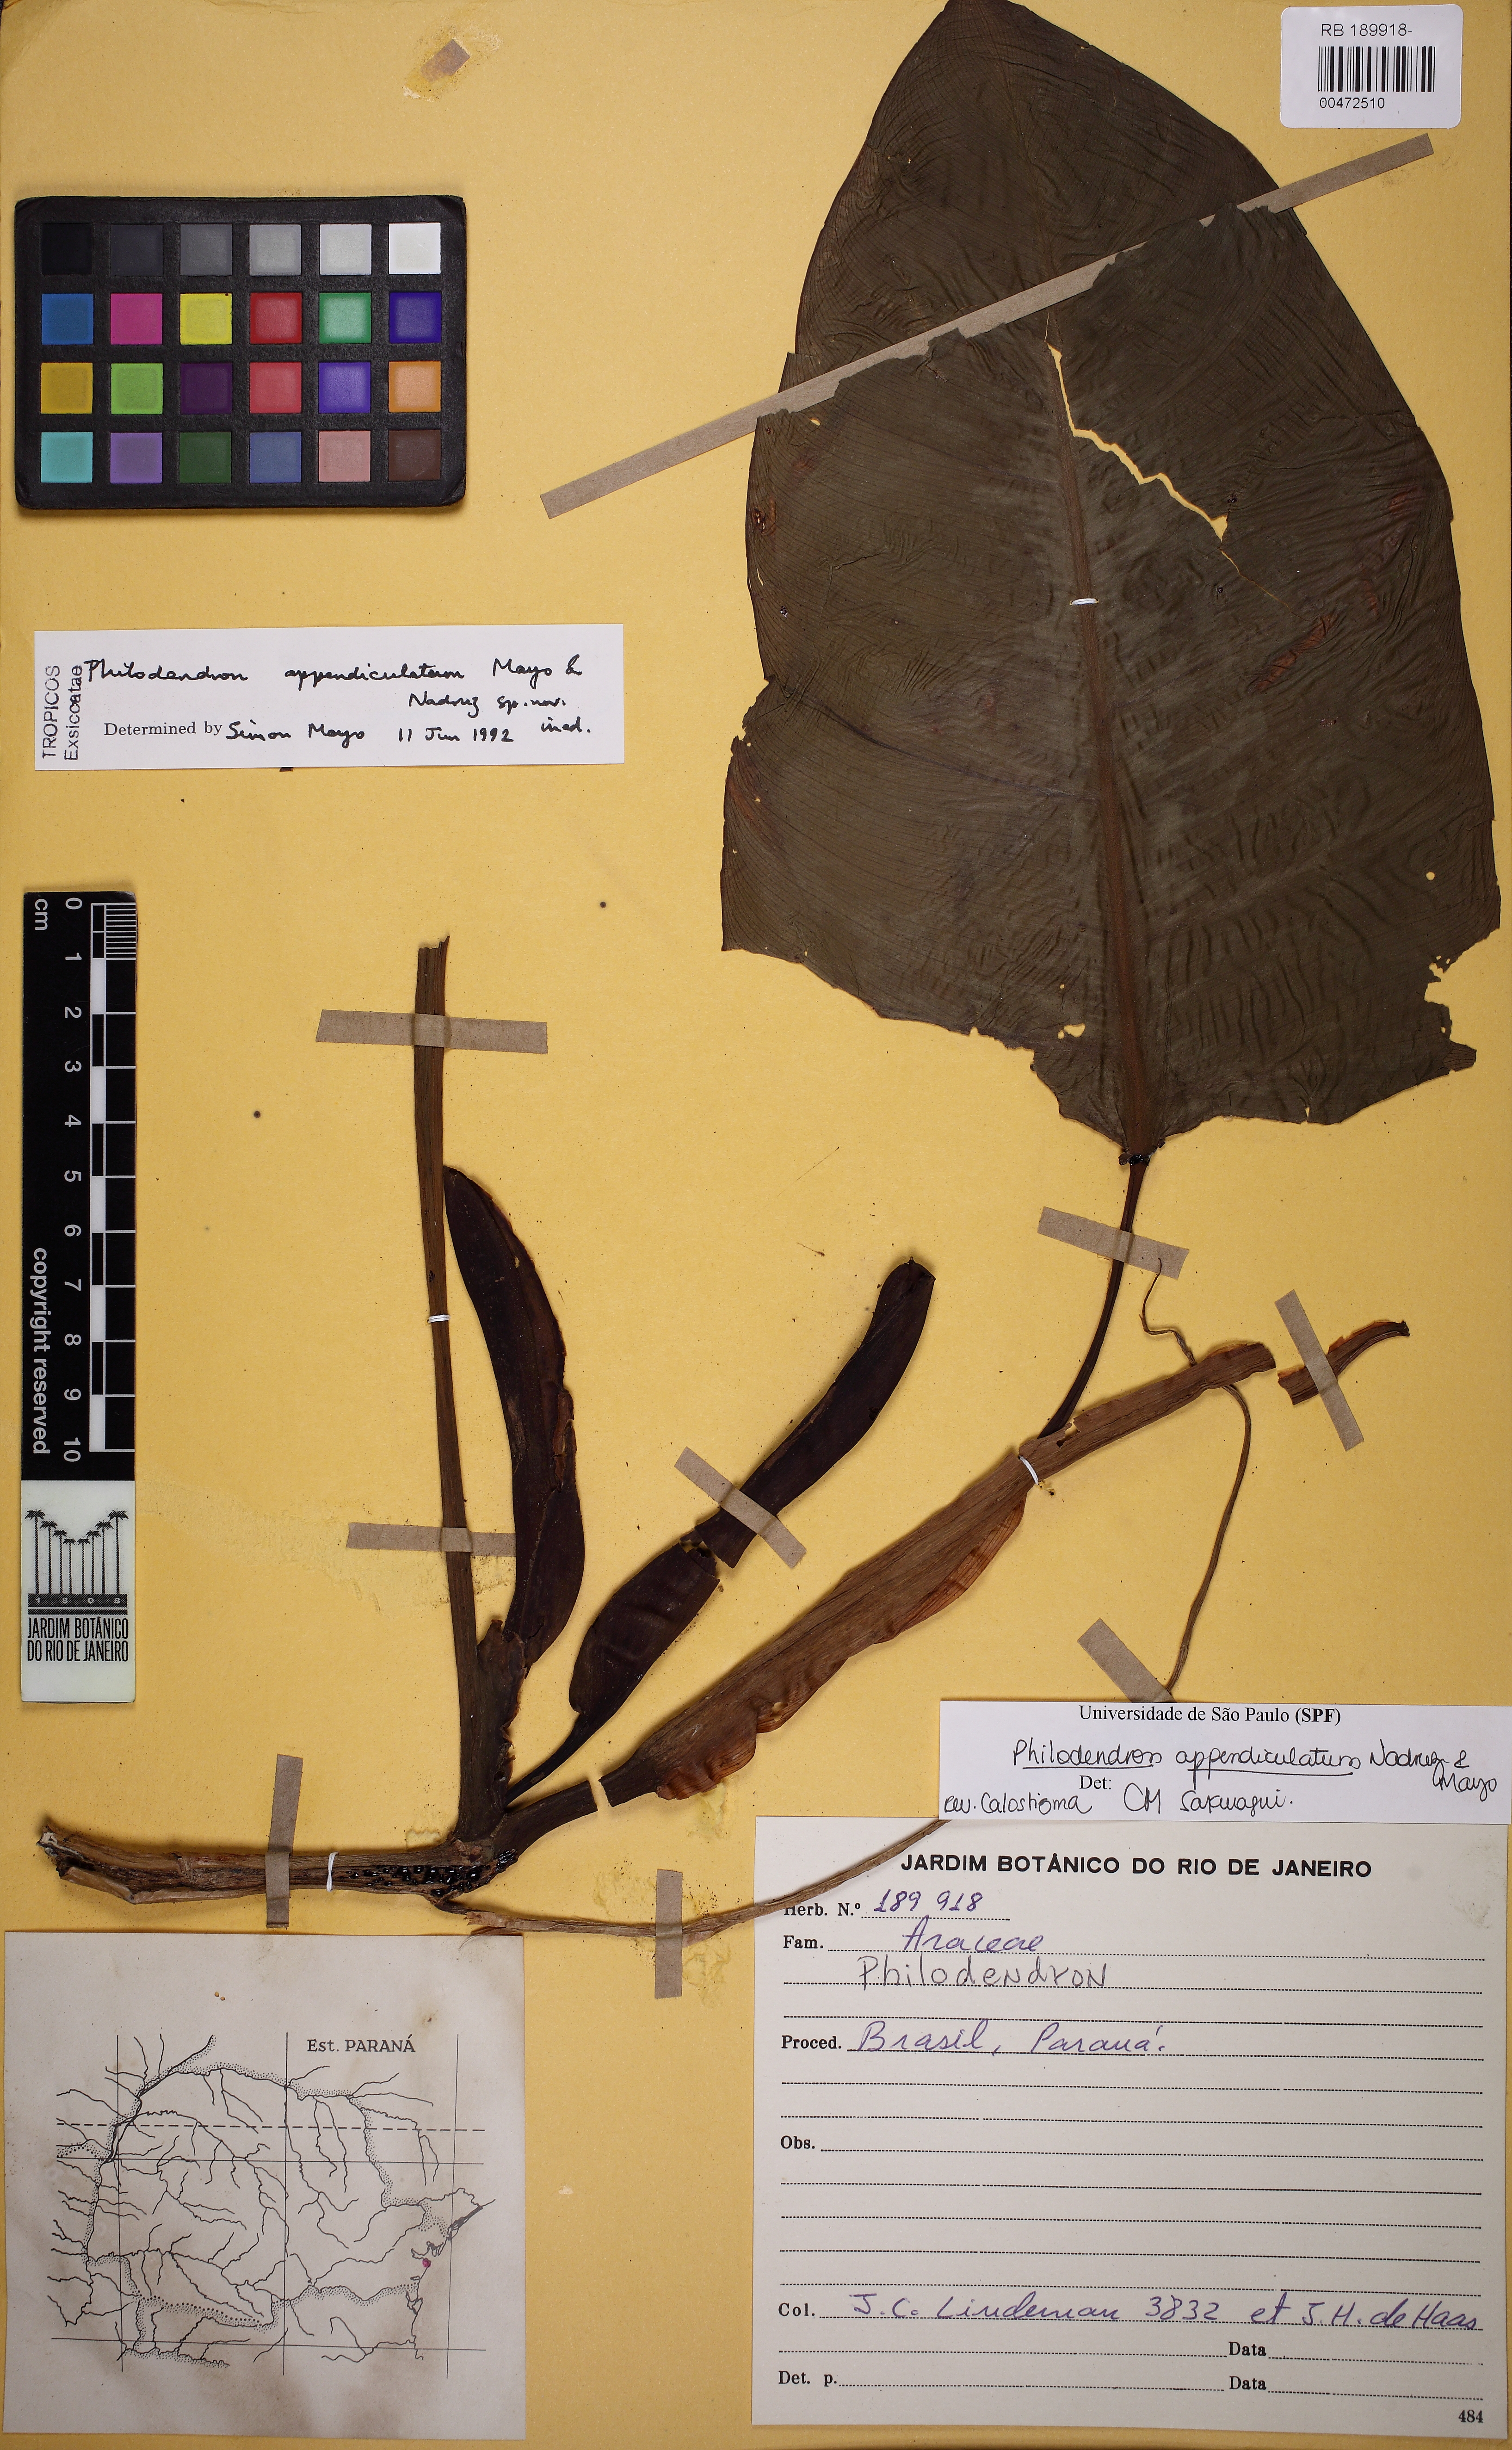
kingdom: Plantae
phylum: Tracheophyta
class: Liliopsida
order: Alismatales
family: Araceae
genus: Philodendron
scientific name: Philodendron appendiculatum
